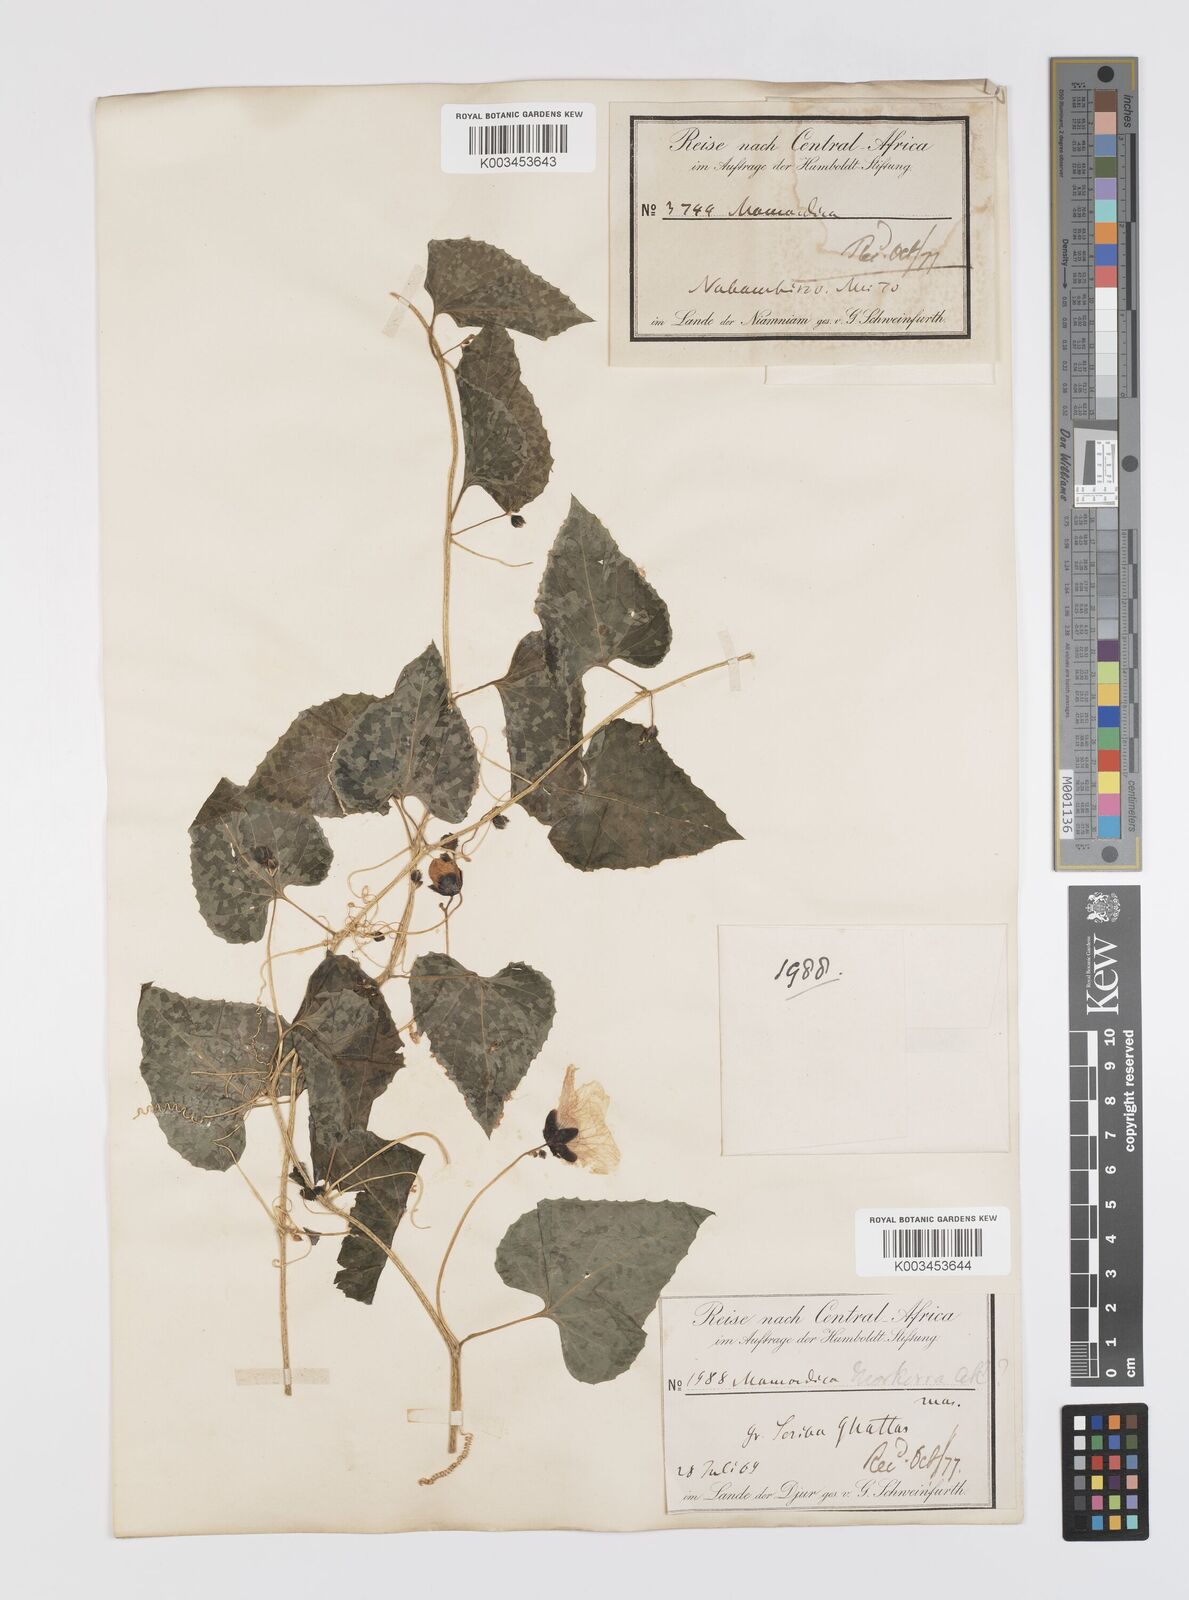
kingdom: Plantae
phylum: Tracheophyta
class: Magnoliopsida
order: Cucurbitales
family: Cucurbitaceae
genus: Momordica
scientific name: Momordica foetida
